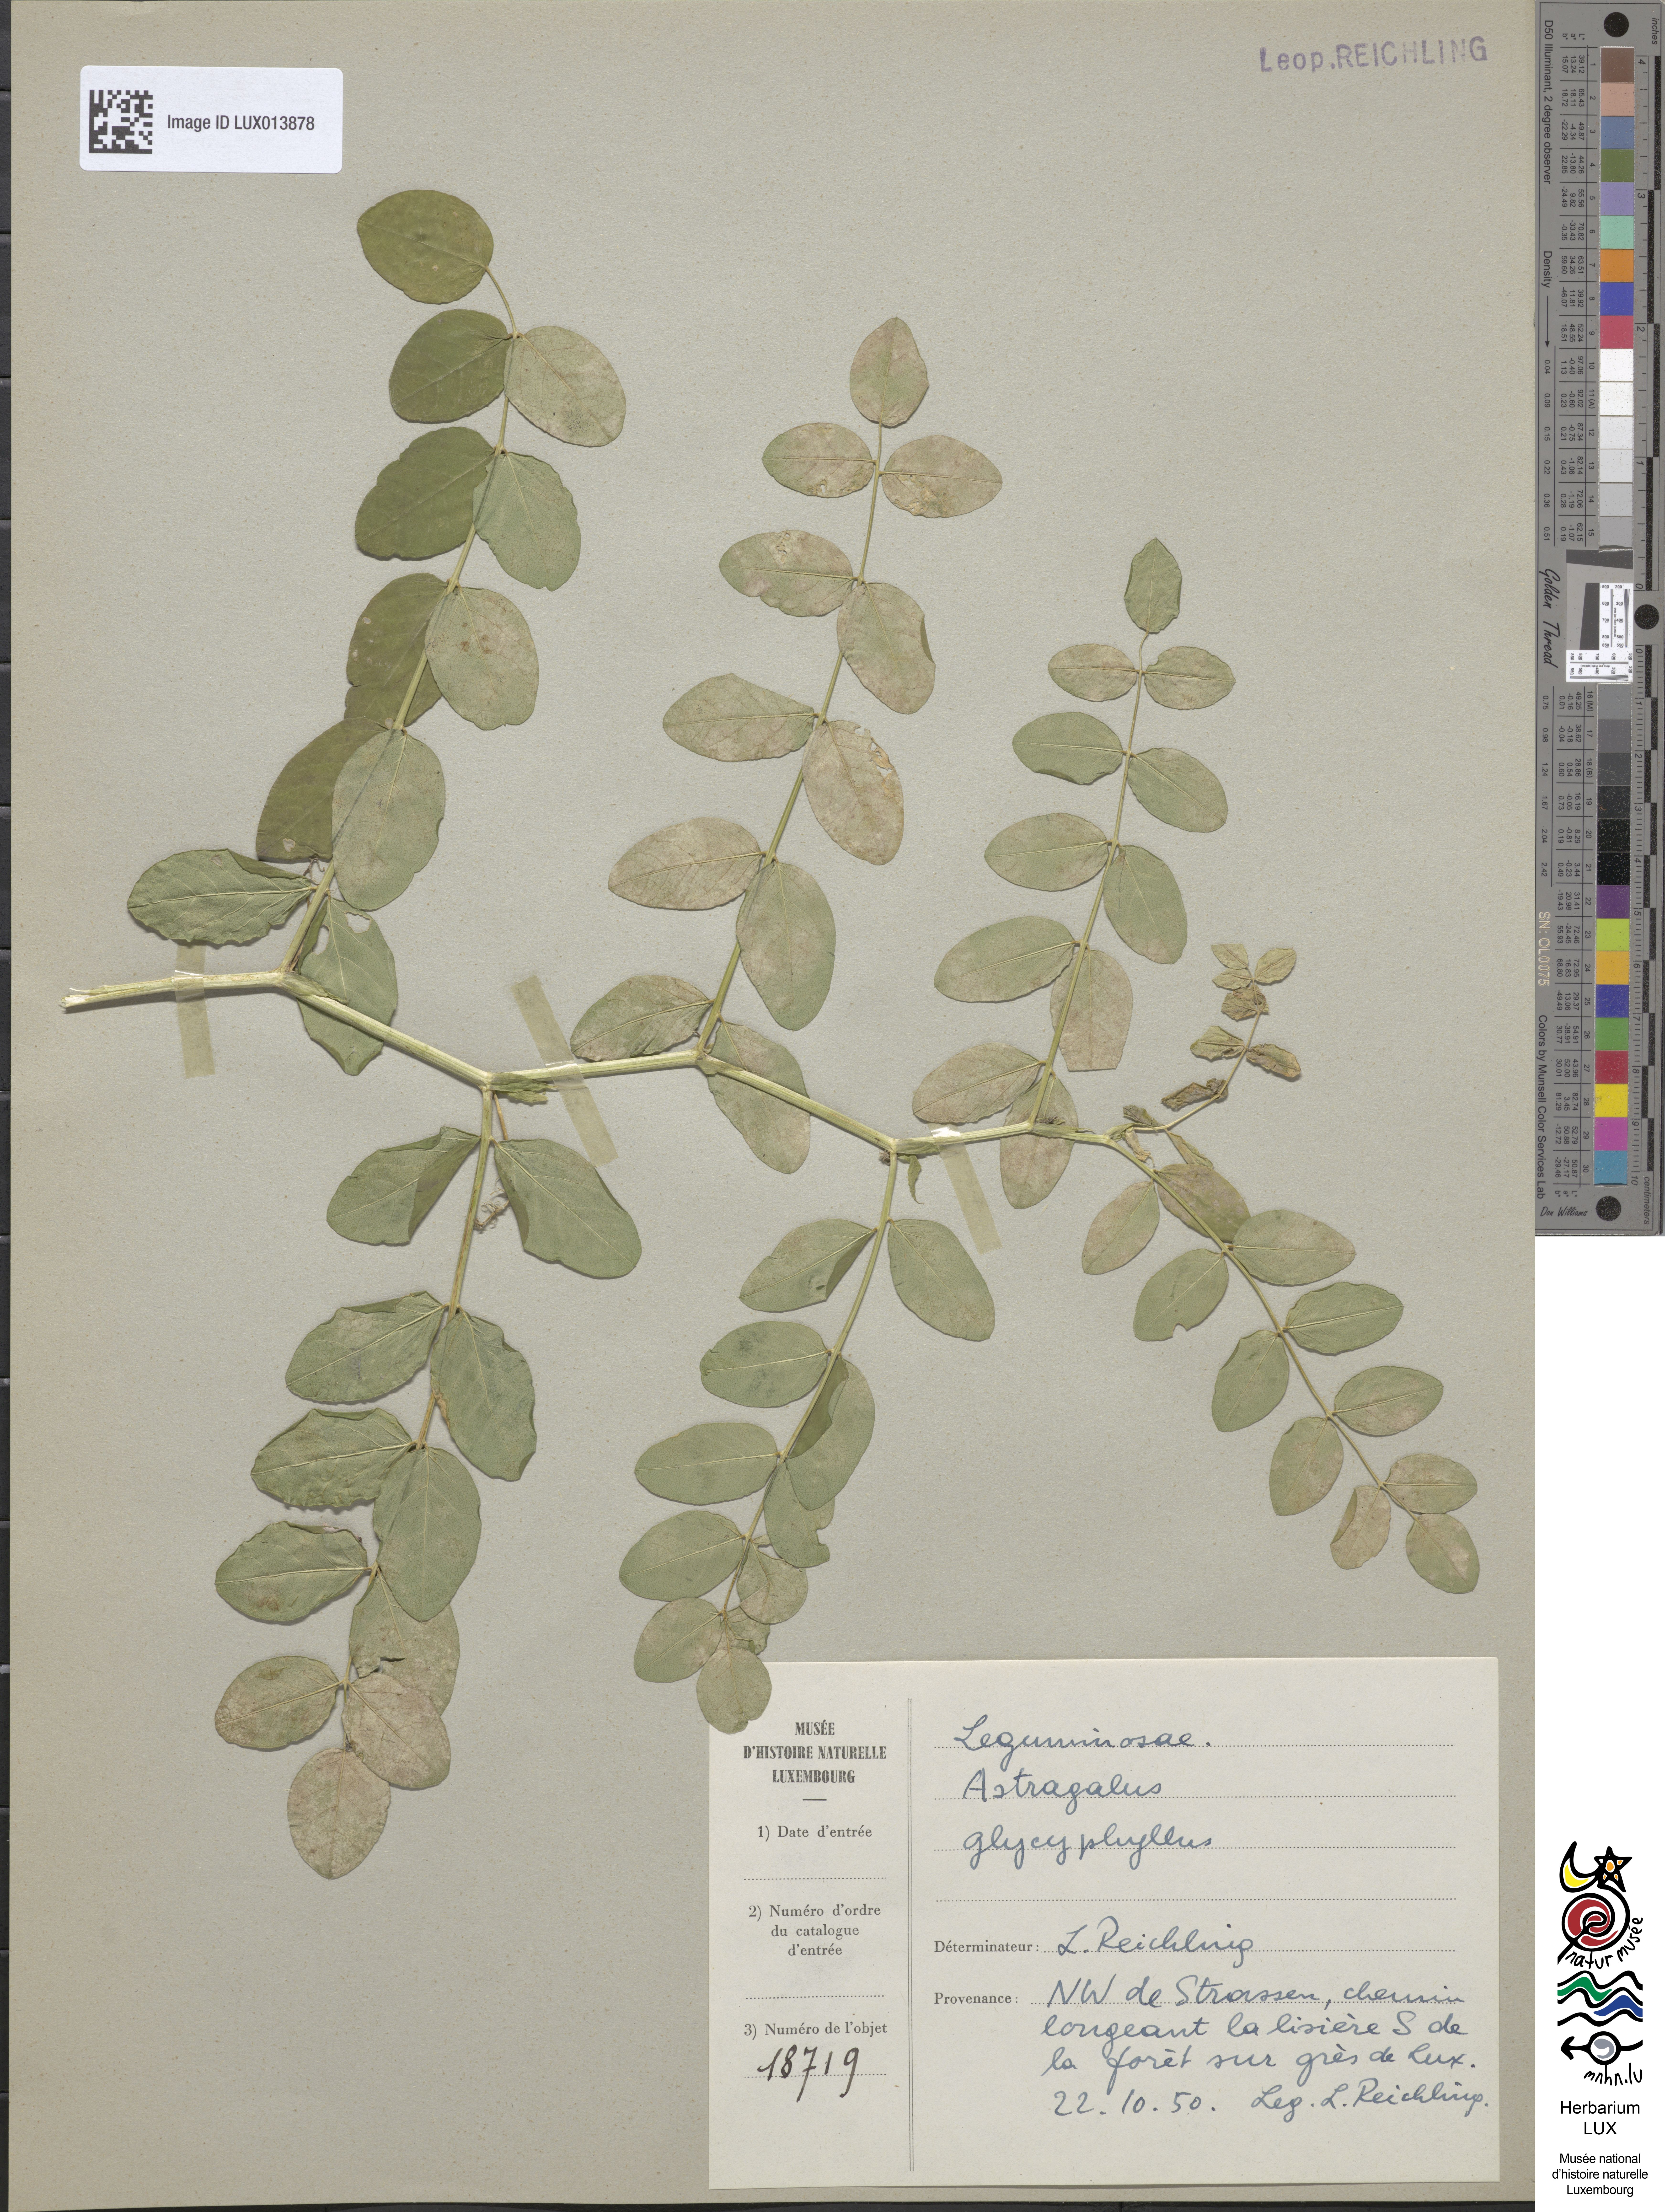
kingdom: Plantae
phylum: Tracheophyta
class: Magnoliopsida
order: Fabales
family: Fabaceae
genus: Astragalus
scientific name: Astragalus glycyphyllos
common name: Wild liquorice
